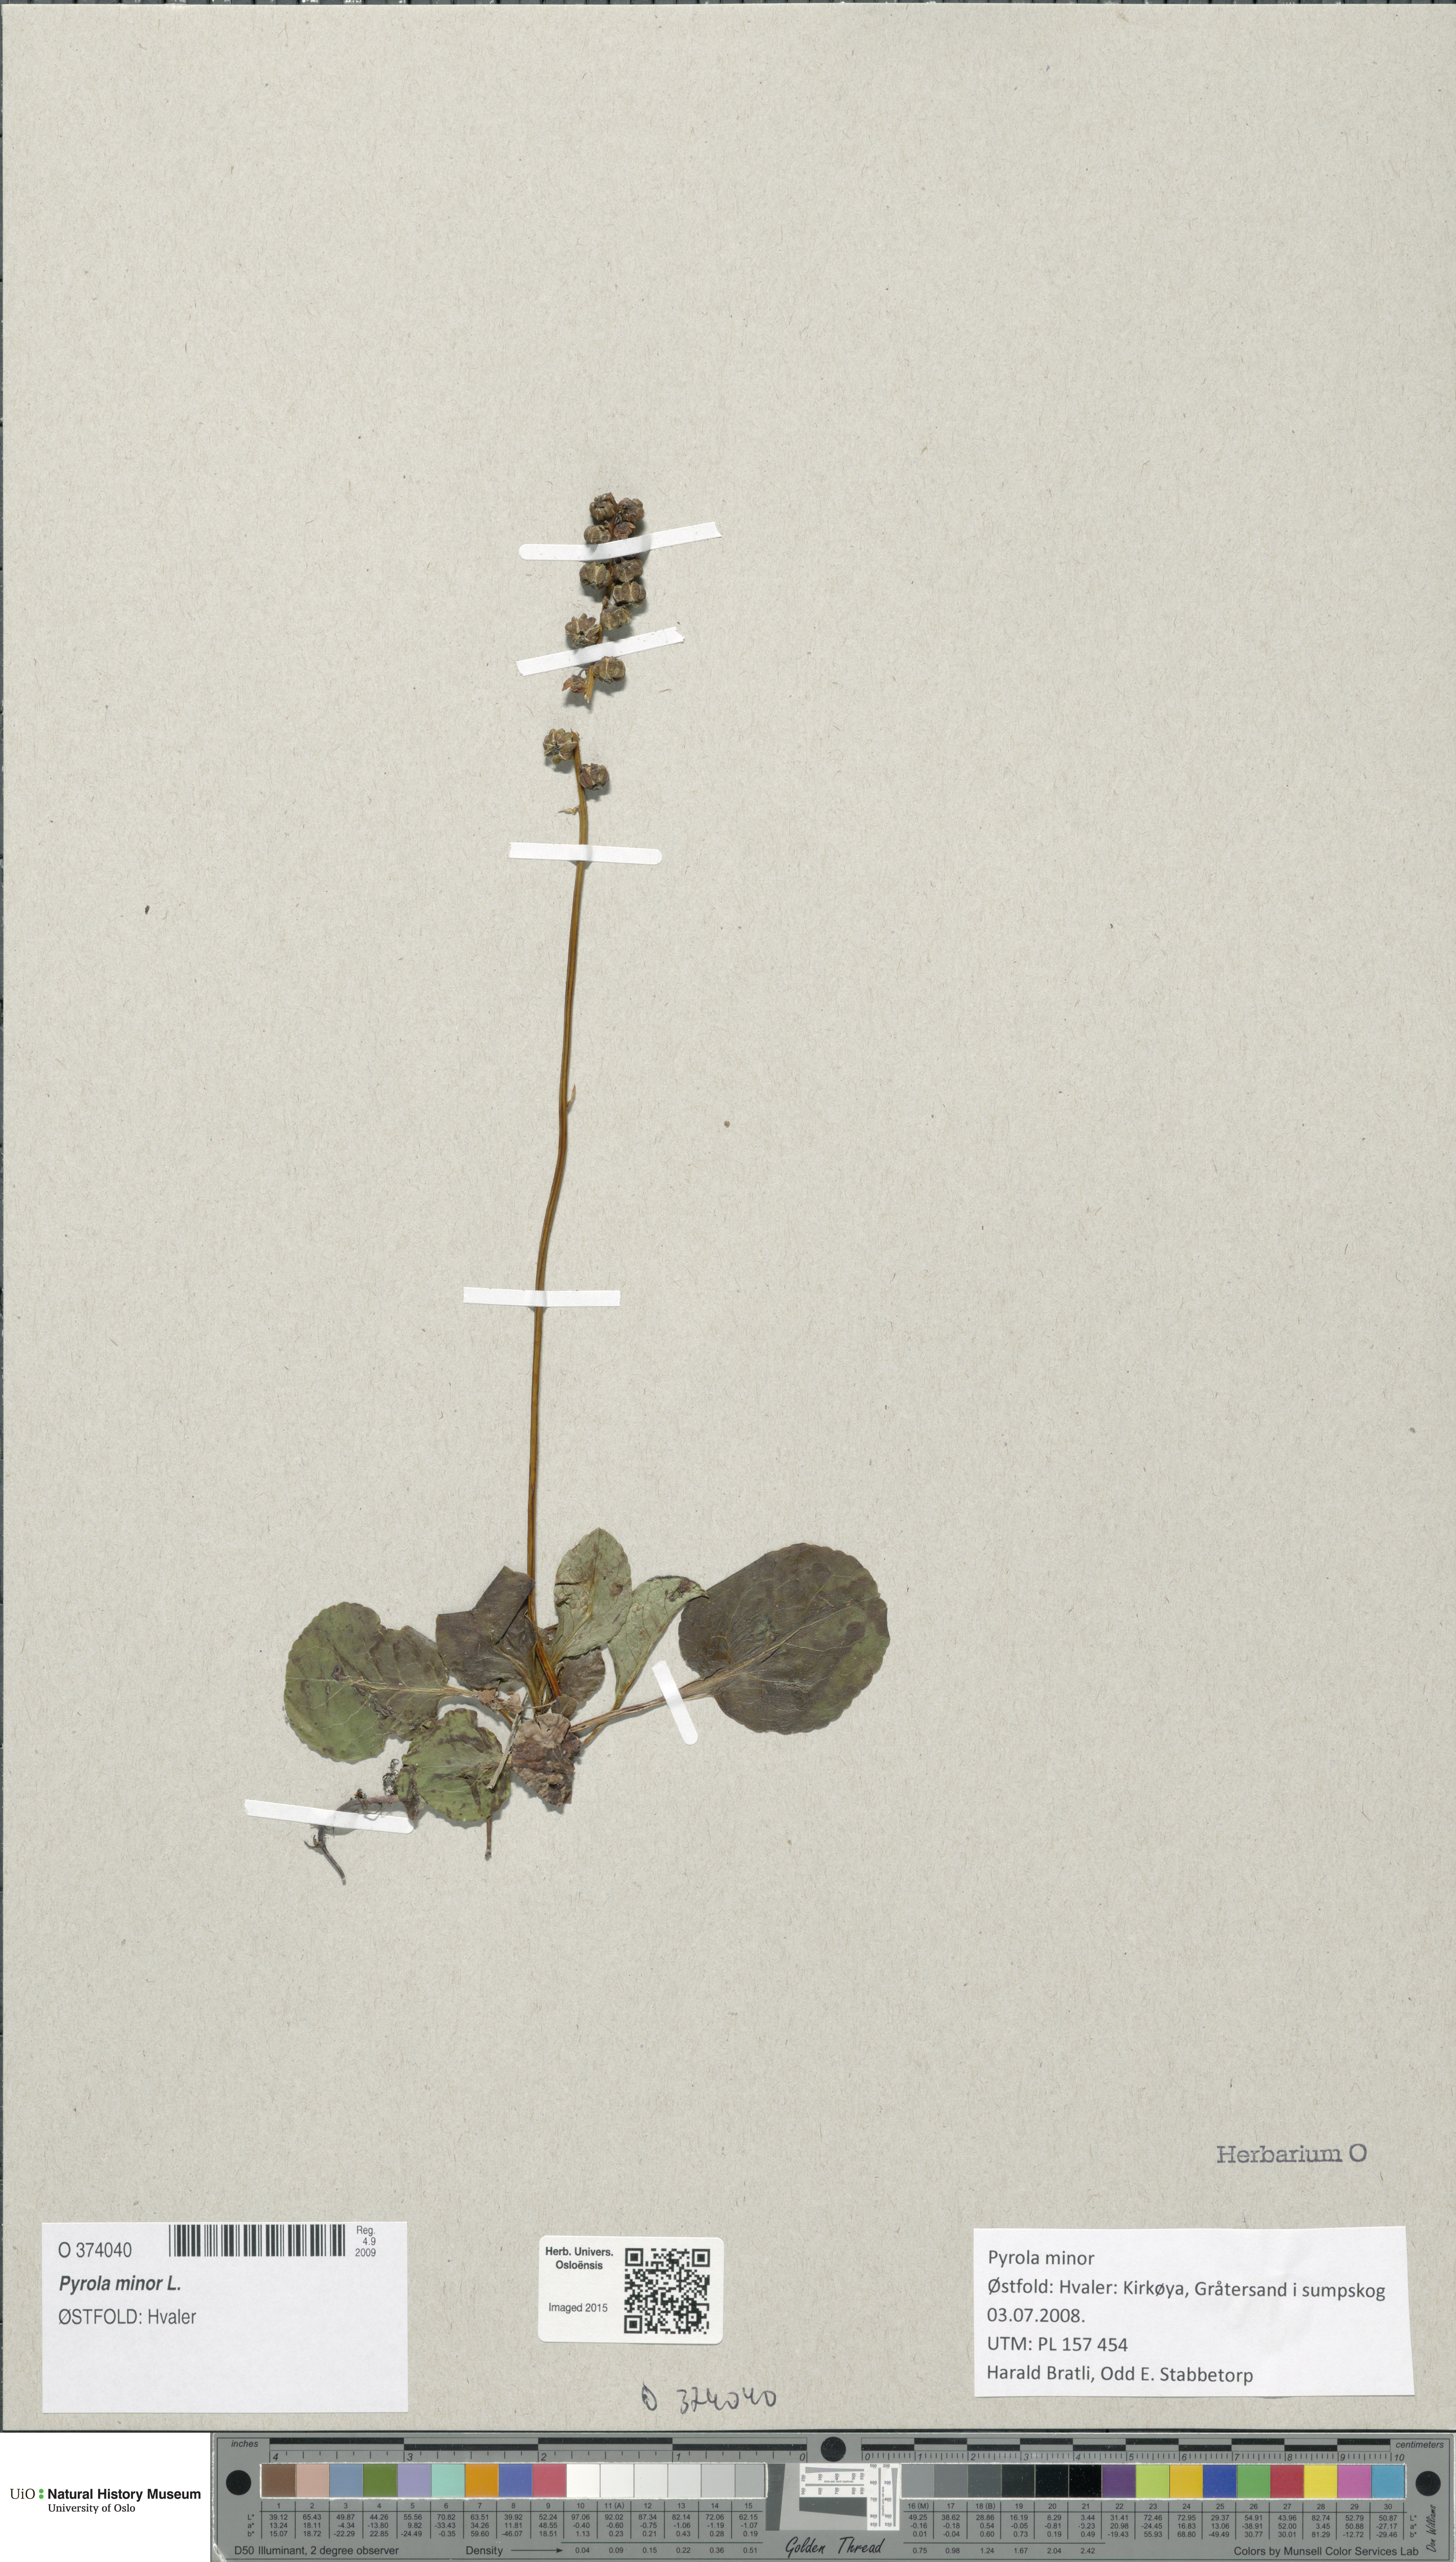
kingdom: Plantae
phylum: Tracheophyta
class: Magnoliopsida
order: Ericales
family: Ericaceae
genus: Pyrola
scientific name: Pyrola minor
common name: Common wintergreen
